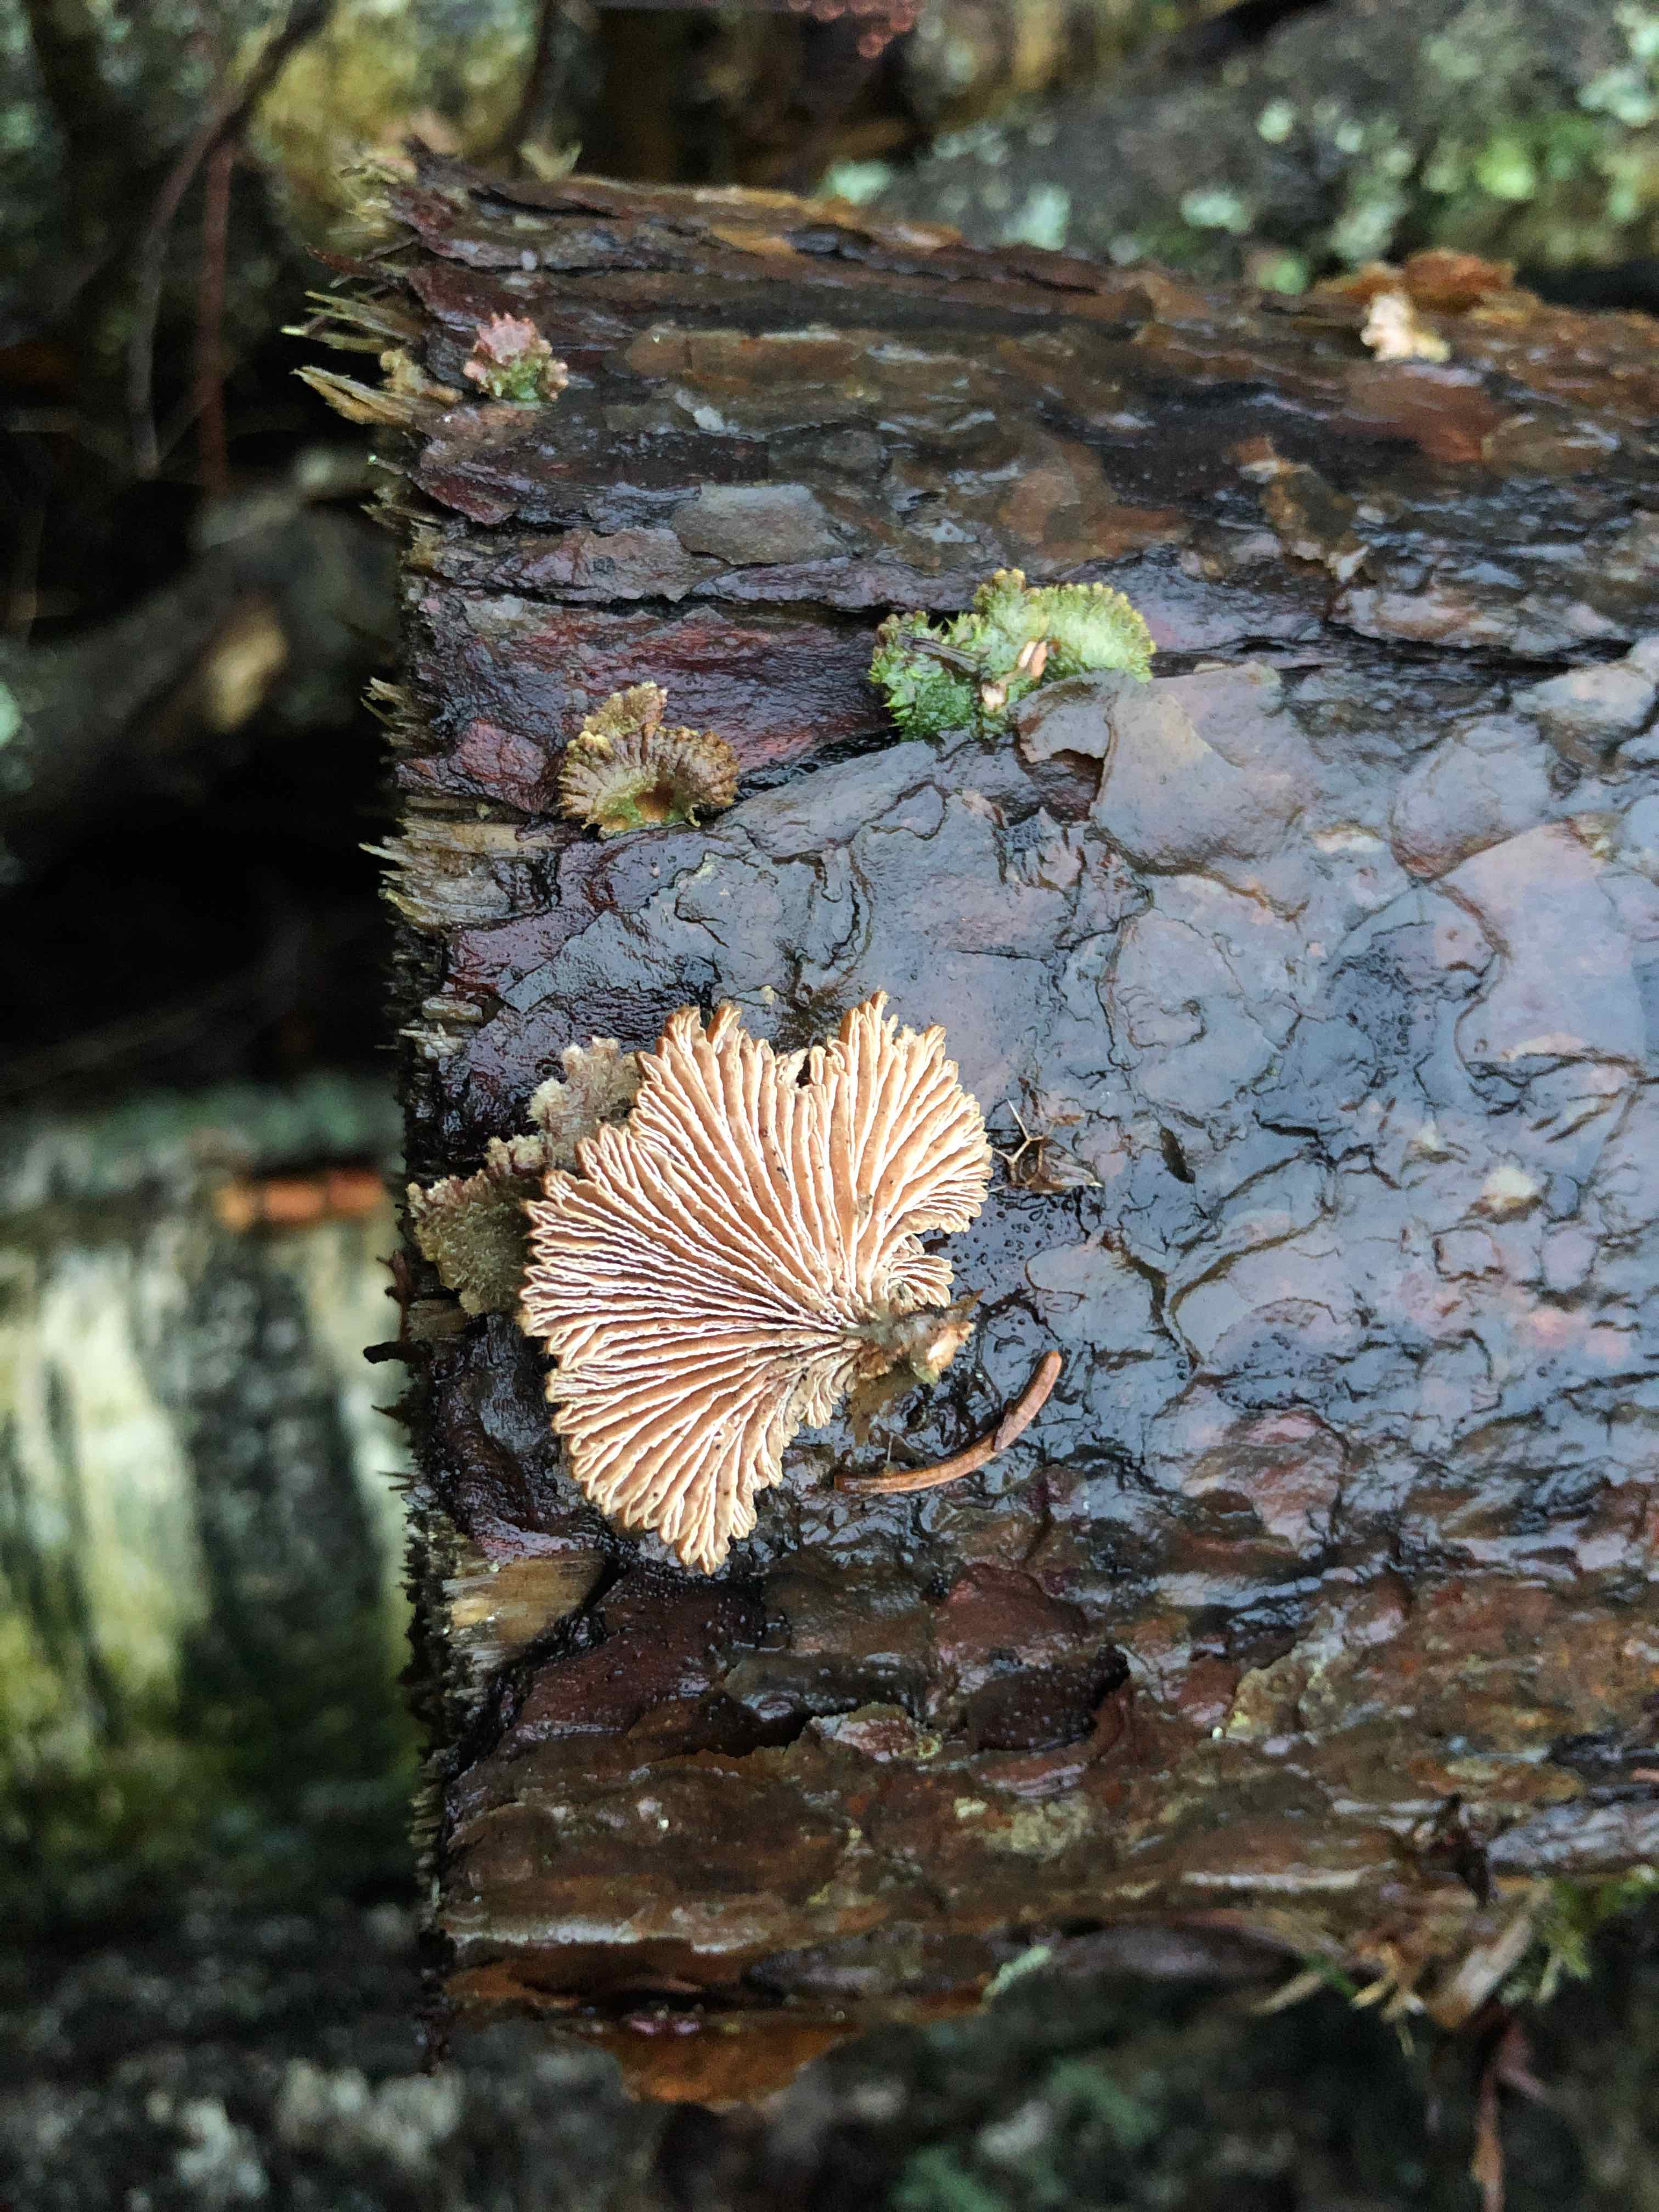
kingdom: Fungi
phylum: Basidiomycota
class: Agaricomycetes
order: Agaricales
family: Schizophyllaceae
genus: Schizophyllum
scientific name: Schizophyllum commune
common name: kløvblad
